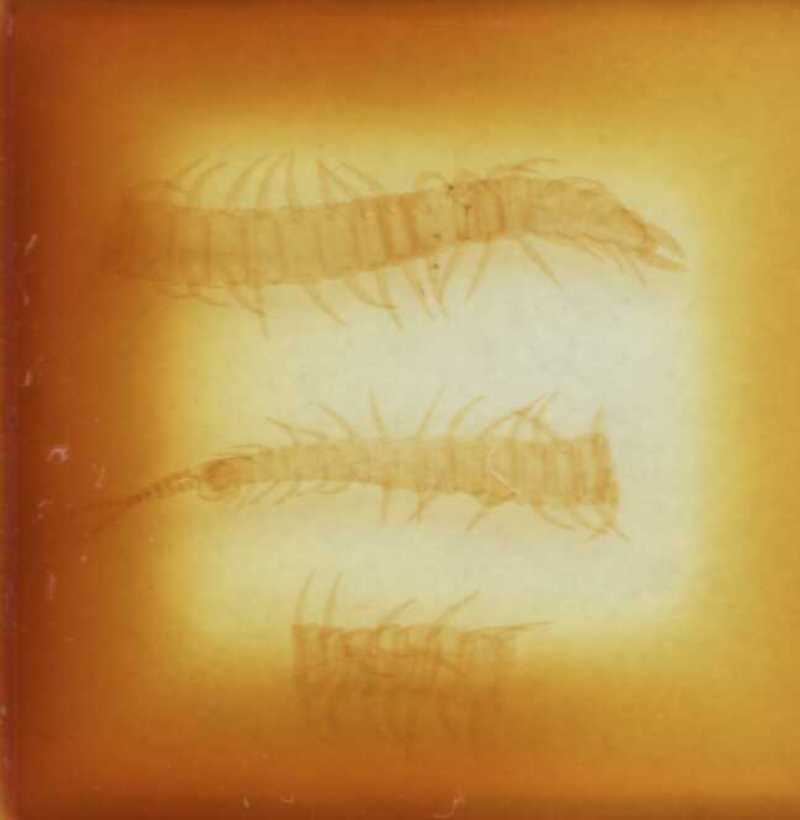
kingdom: Animalia
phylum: Arthropoda
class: Chilopoda
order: Geophilomorpha
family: Linotaeniidae
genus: Strigamia
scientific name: Strigamia acuminata
